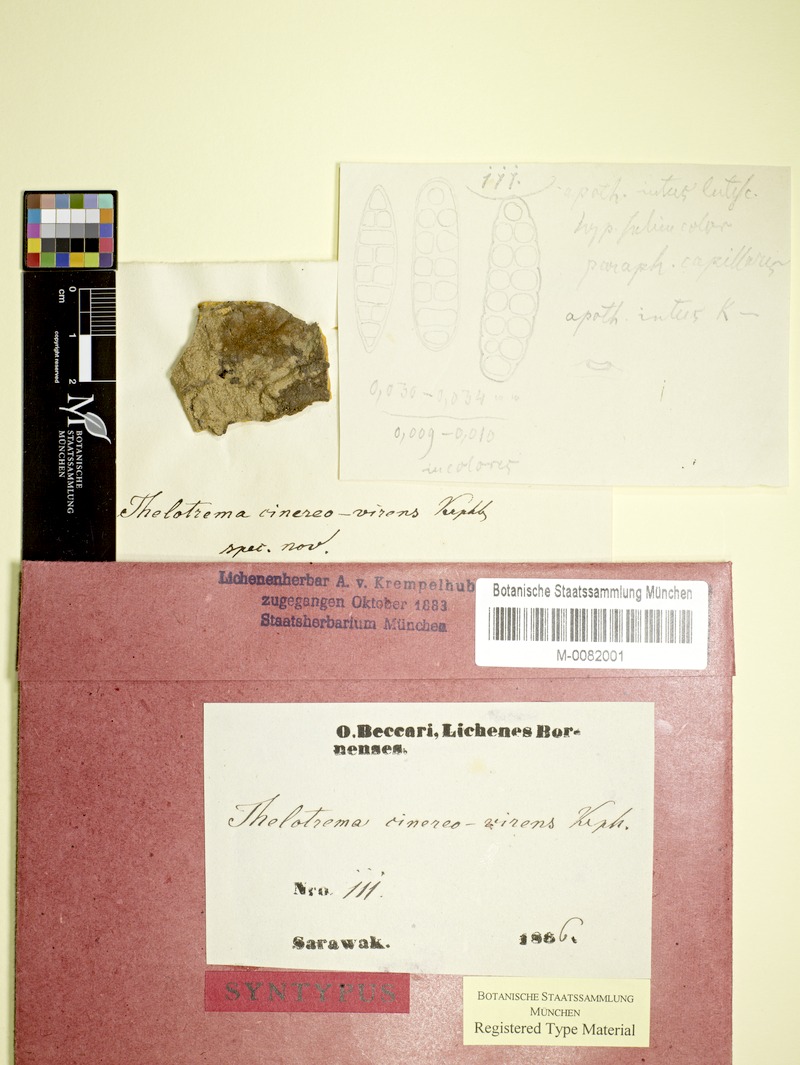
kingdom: Fungi
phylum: Ascomycota
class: Lecanoromycetes
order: Ostropales
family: Graphidaceae
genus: Thelotrema
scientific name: Thelotrema cinereovirens
